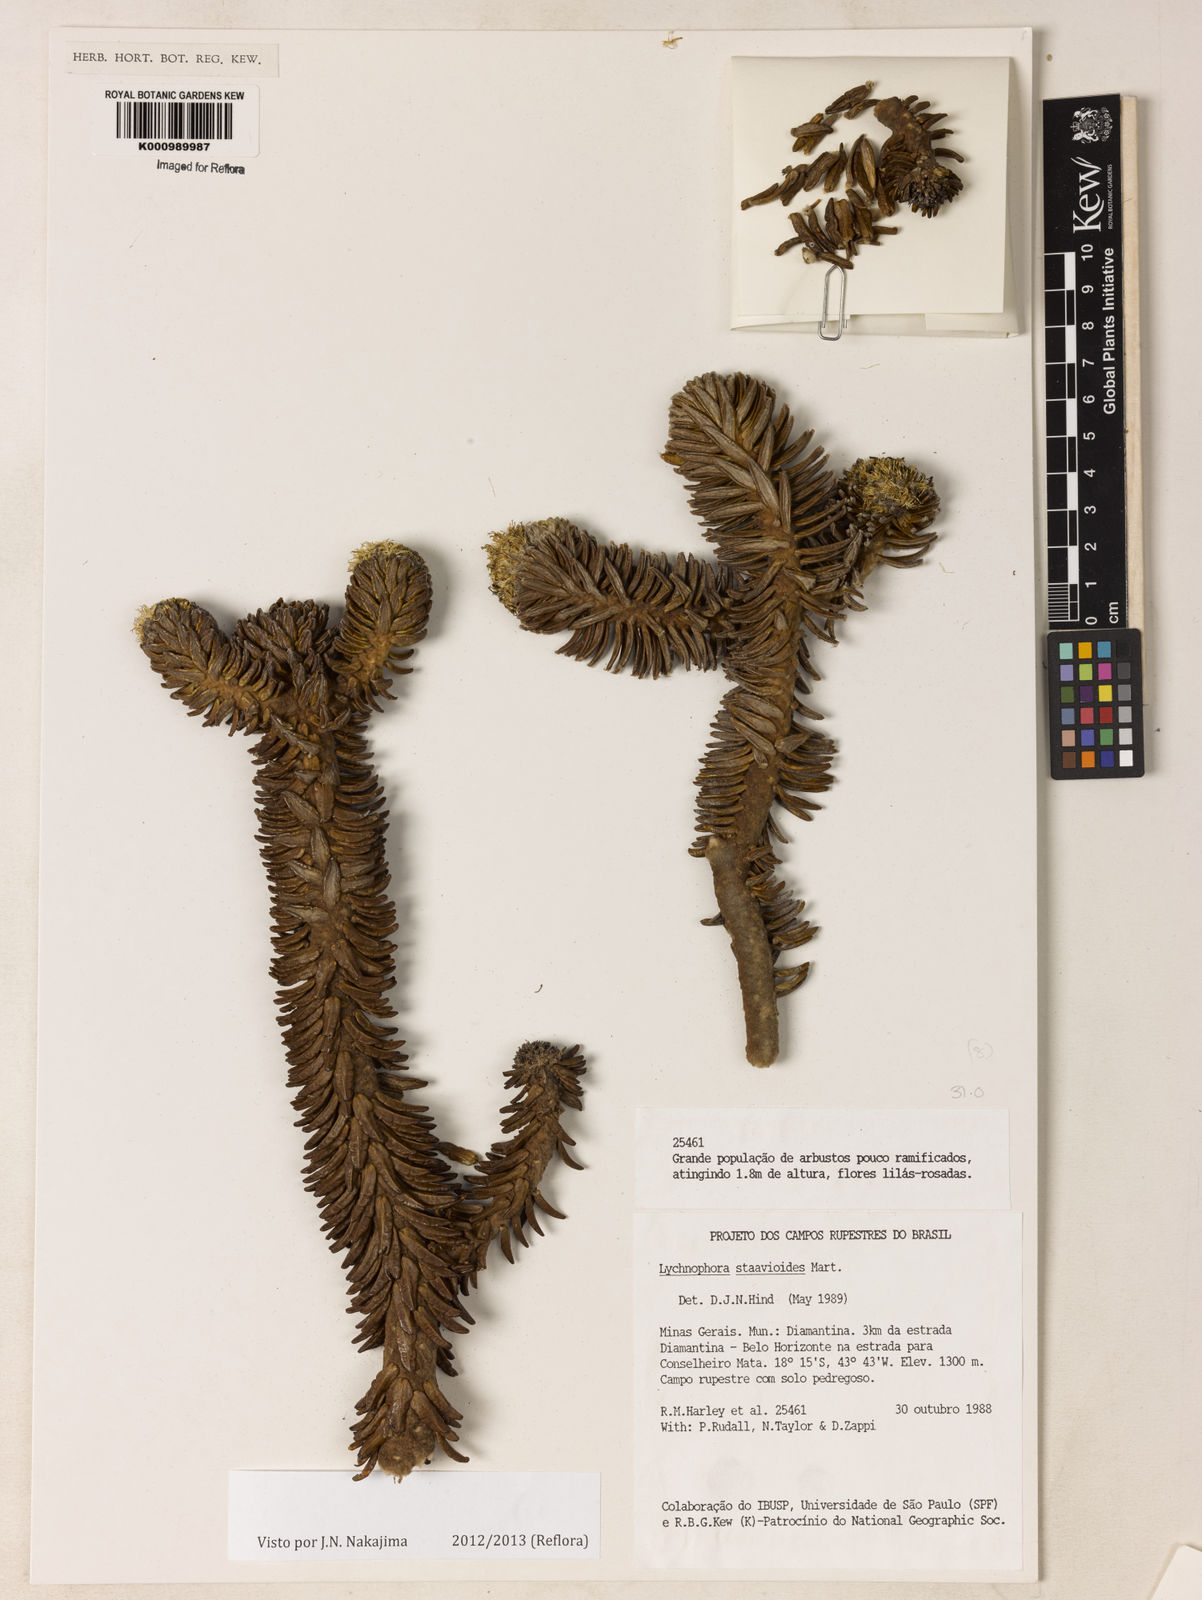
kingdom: Plantae
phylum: Tracheophyta
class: Magnoliopsida
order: Asterales
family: Asteraceae
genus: Lychnophora
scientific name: Lychnophora staavioides
